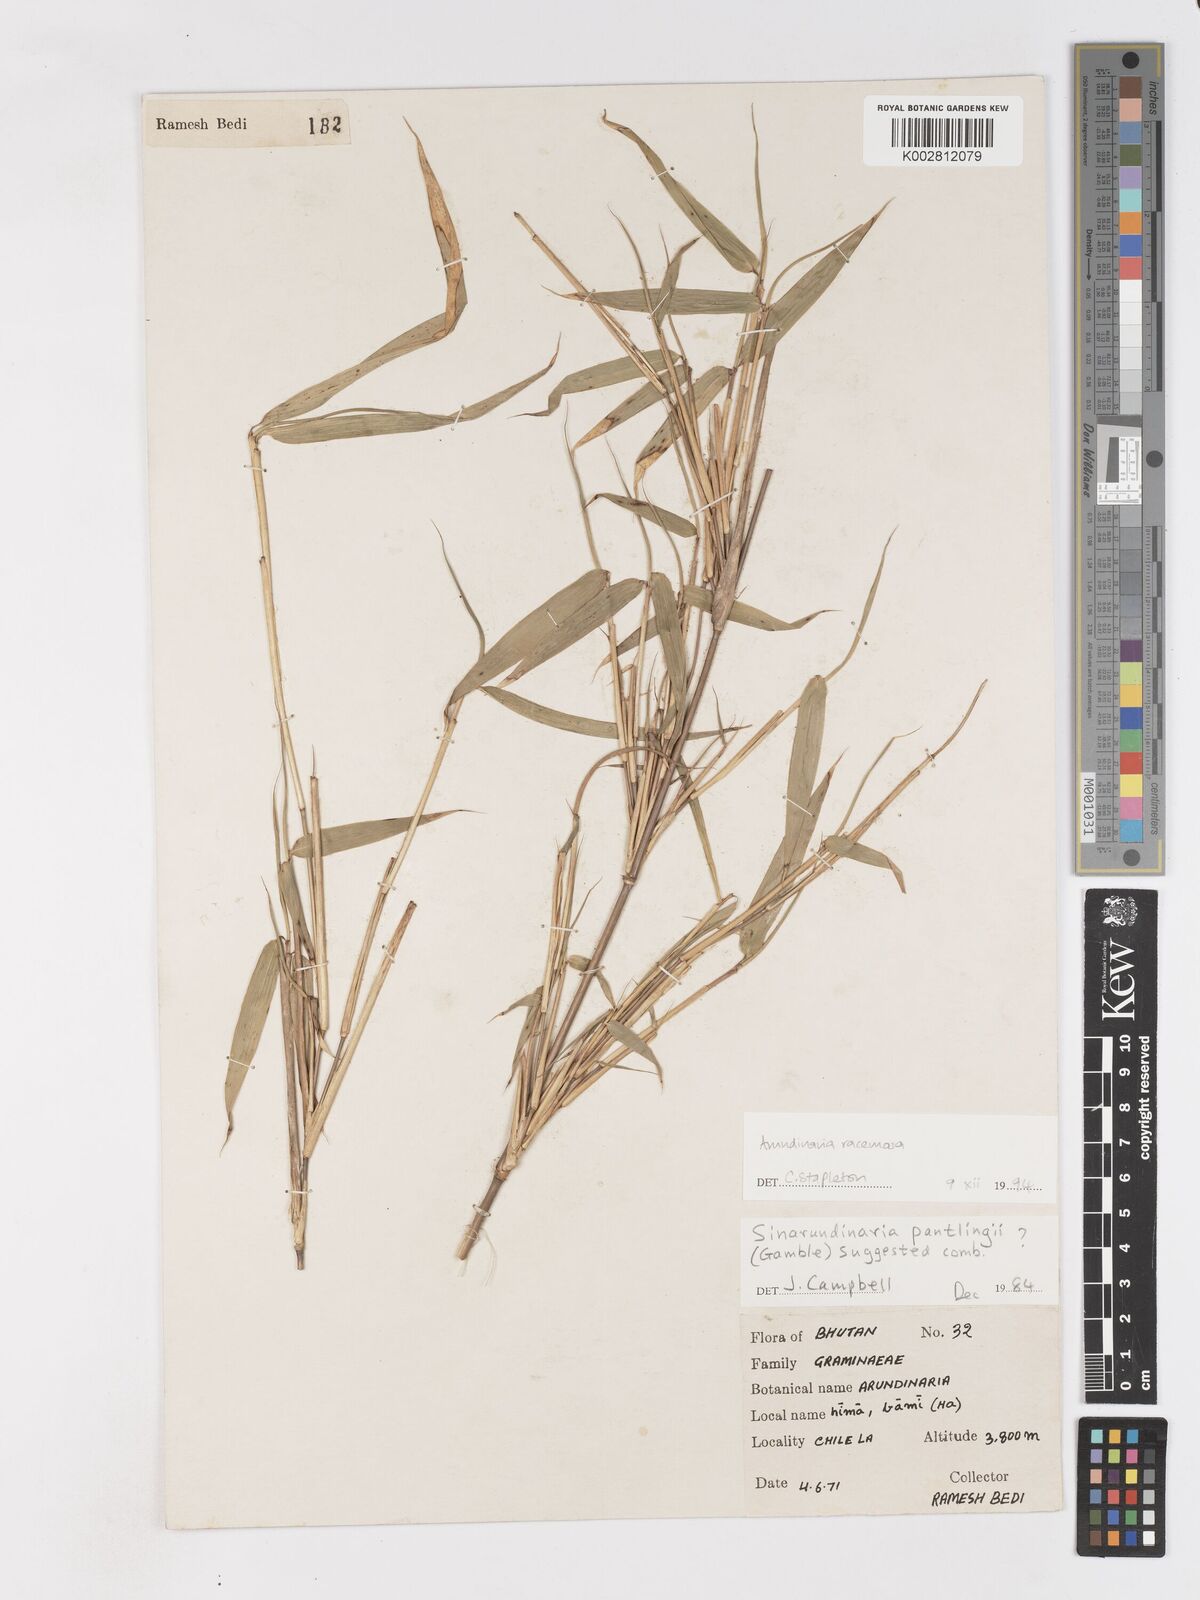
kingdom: Plantae
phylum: Tracheophyta
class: Liliopsida
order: Poales
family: Poaceae
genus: Sarocalamus
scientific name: Sarocalamus racemosus
